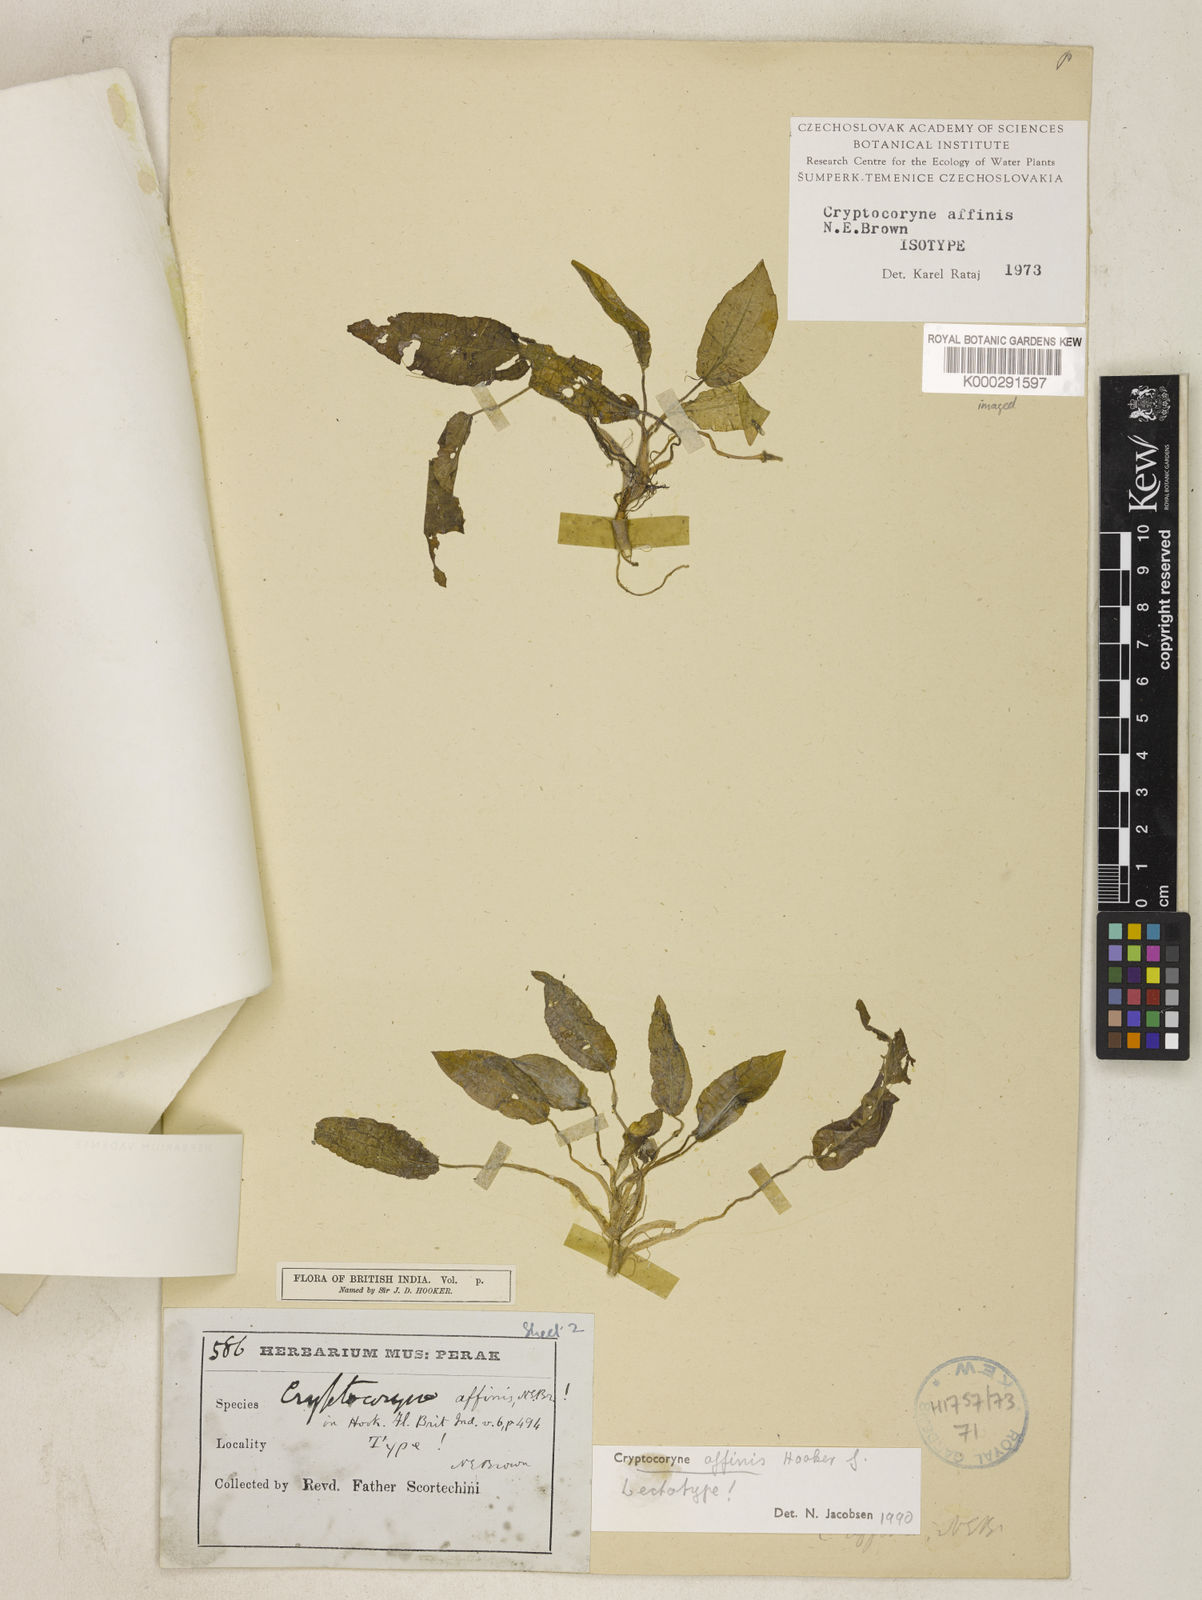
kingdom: Plantae
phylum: Tracheophyta
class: Liliopsida
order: Alismatales
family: Araceae
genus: Cryptocoryne
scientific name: Cryptocoryne
